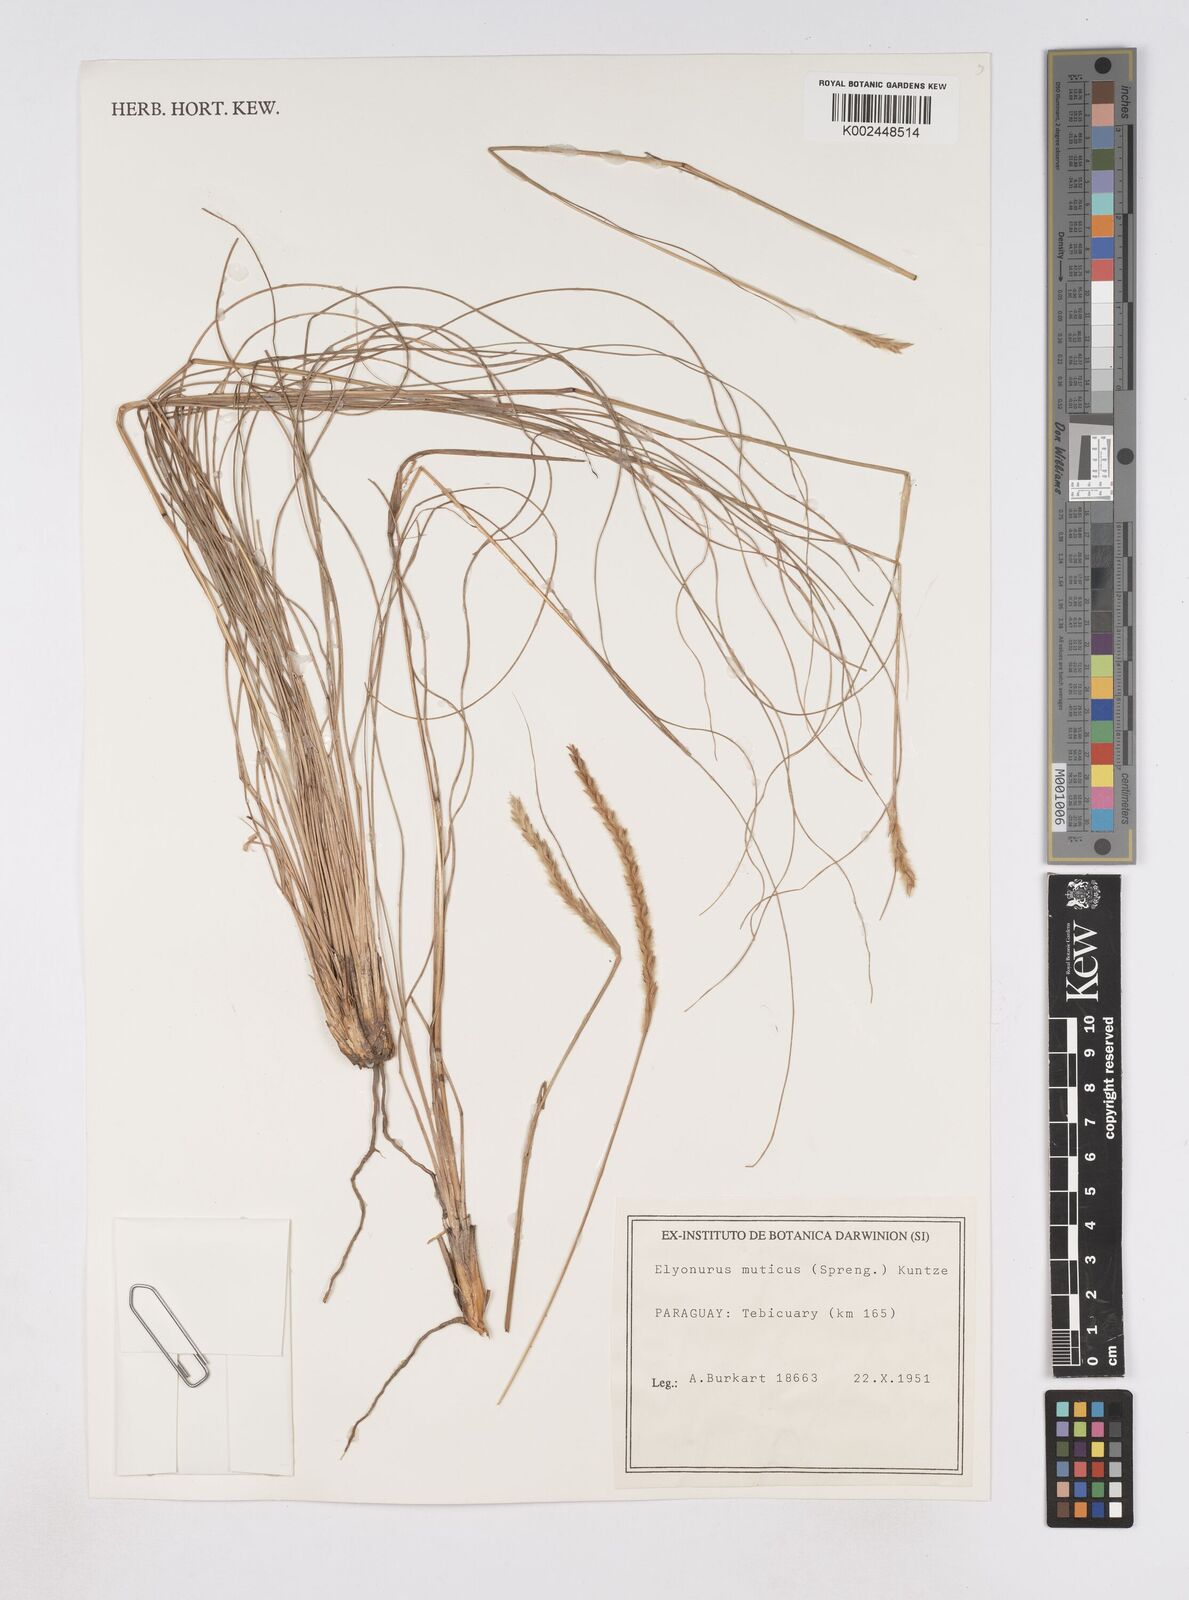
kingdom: Plantae
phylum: Tracheophyta
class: Liliopsida
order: Poales
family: Poaceae
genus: Elionurus
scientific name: Elionurus muticus
